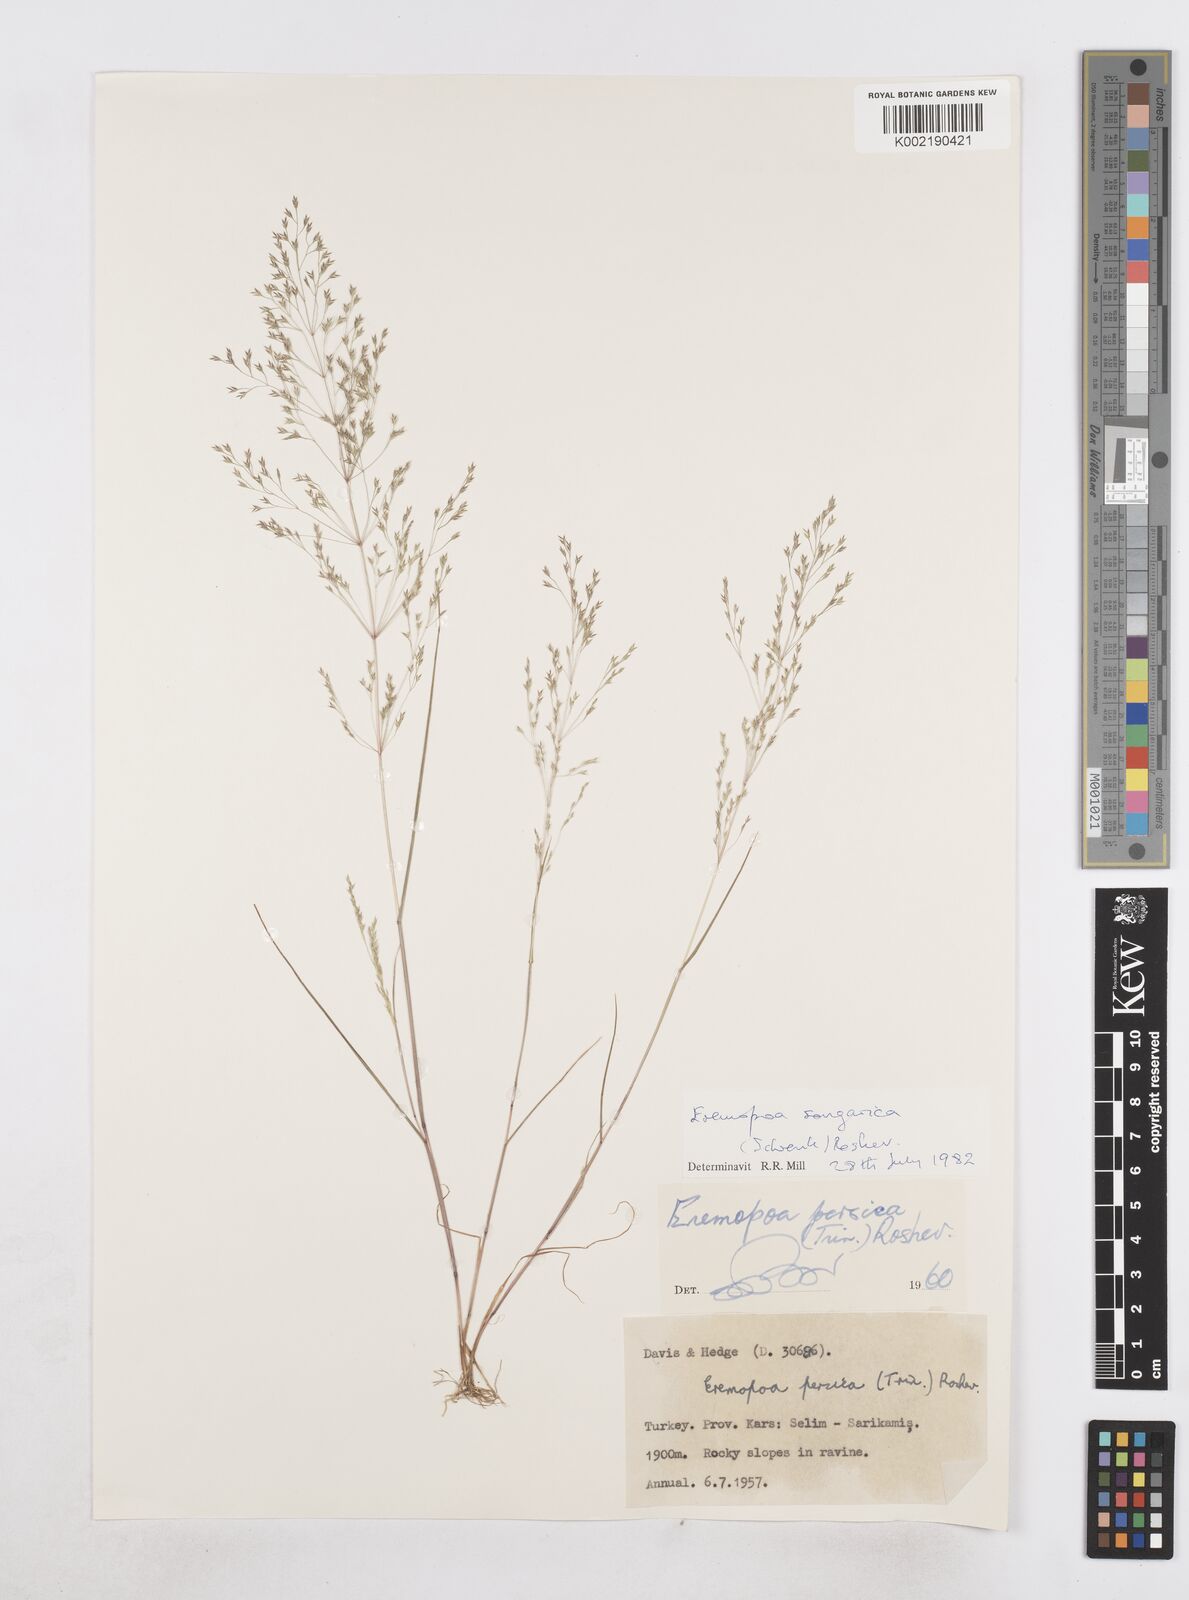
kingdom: Plantae
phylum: Tracheophyta
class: Liliopsida
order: Poales
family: Poaceae
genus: Poa
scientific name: Poa diaphora
